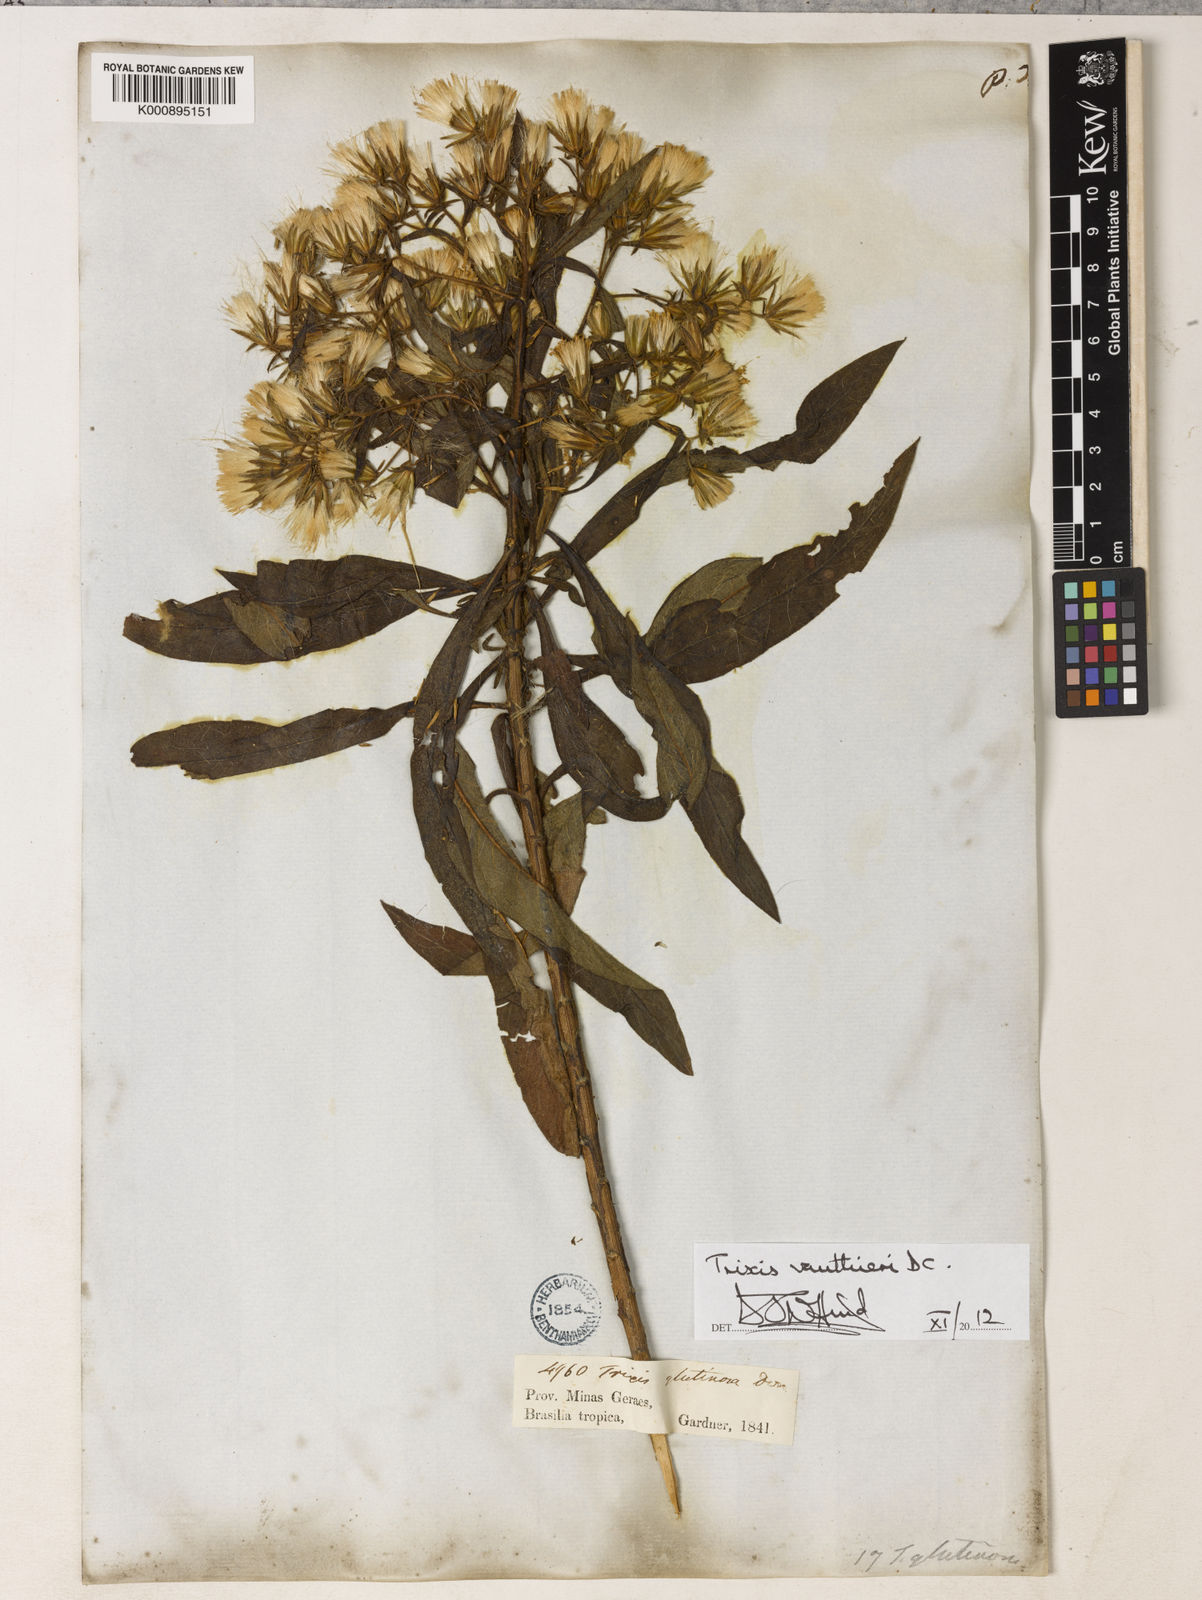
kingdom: Plantae
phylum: Tracheophyta
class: Magnoliopsida
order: Asterales
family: Asteraceae
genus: Trixis
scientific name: Trixis vauthieri
